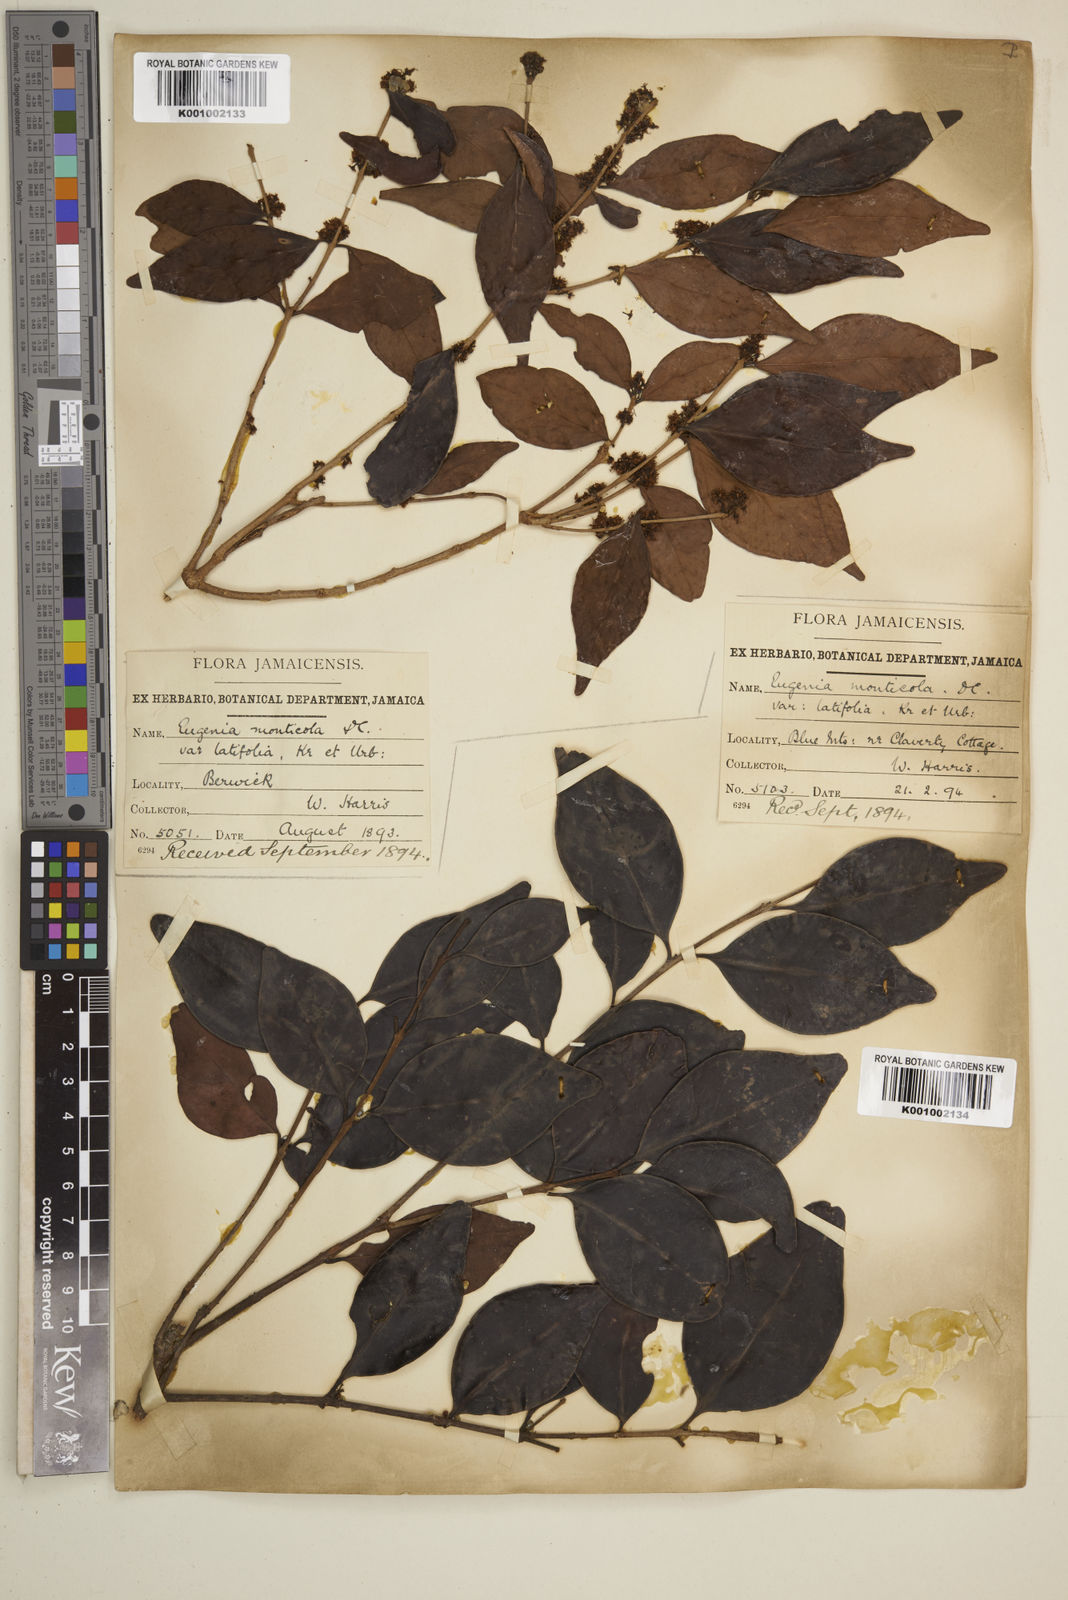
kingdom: Plantae
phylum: Tracheophyta
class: Magnoliopsida
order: Myrtales
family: Myrtaceae
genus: Eugenia
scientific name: Eugenia monticola
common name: Birds berry
